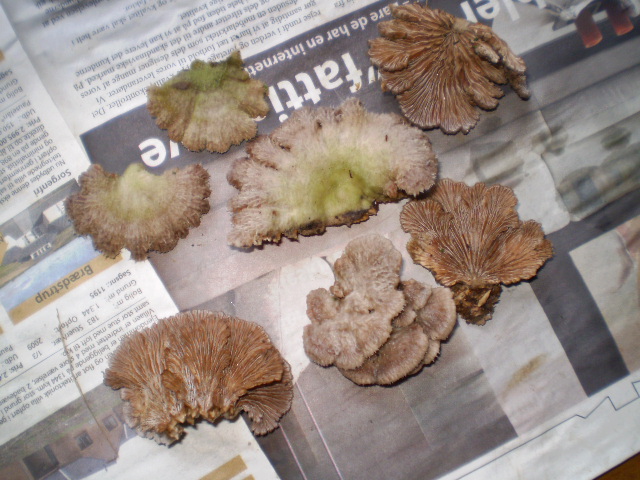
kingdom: Fungi
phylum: Basidiomycota
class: Agaricomycetes
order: Agaricales
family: Schizophyllaceae
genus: Schizophyllum
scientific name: Schizophyllum commune
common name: kløvblad
